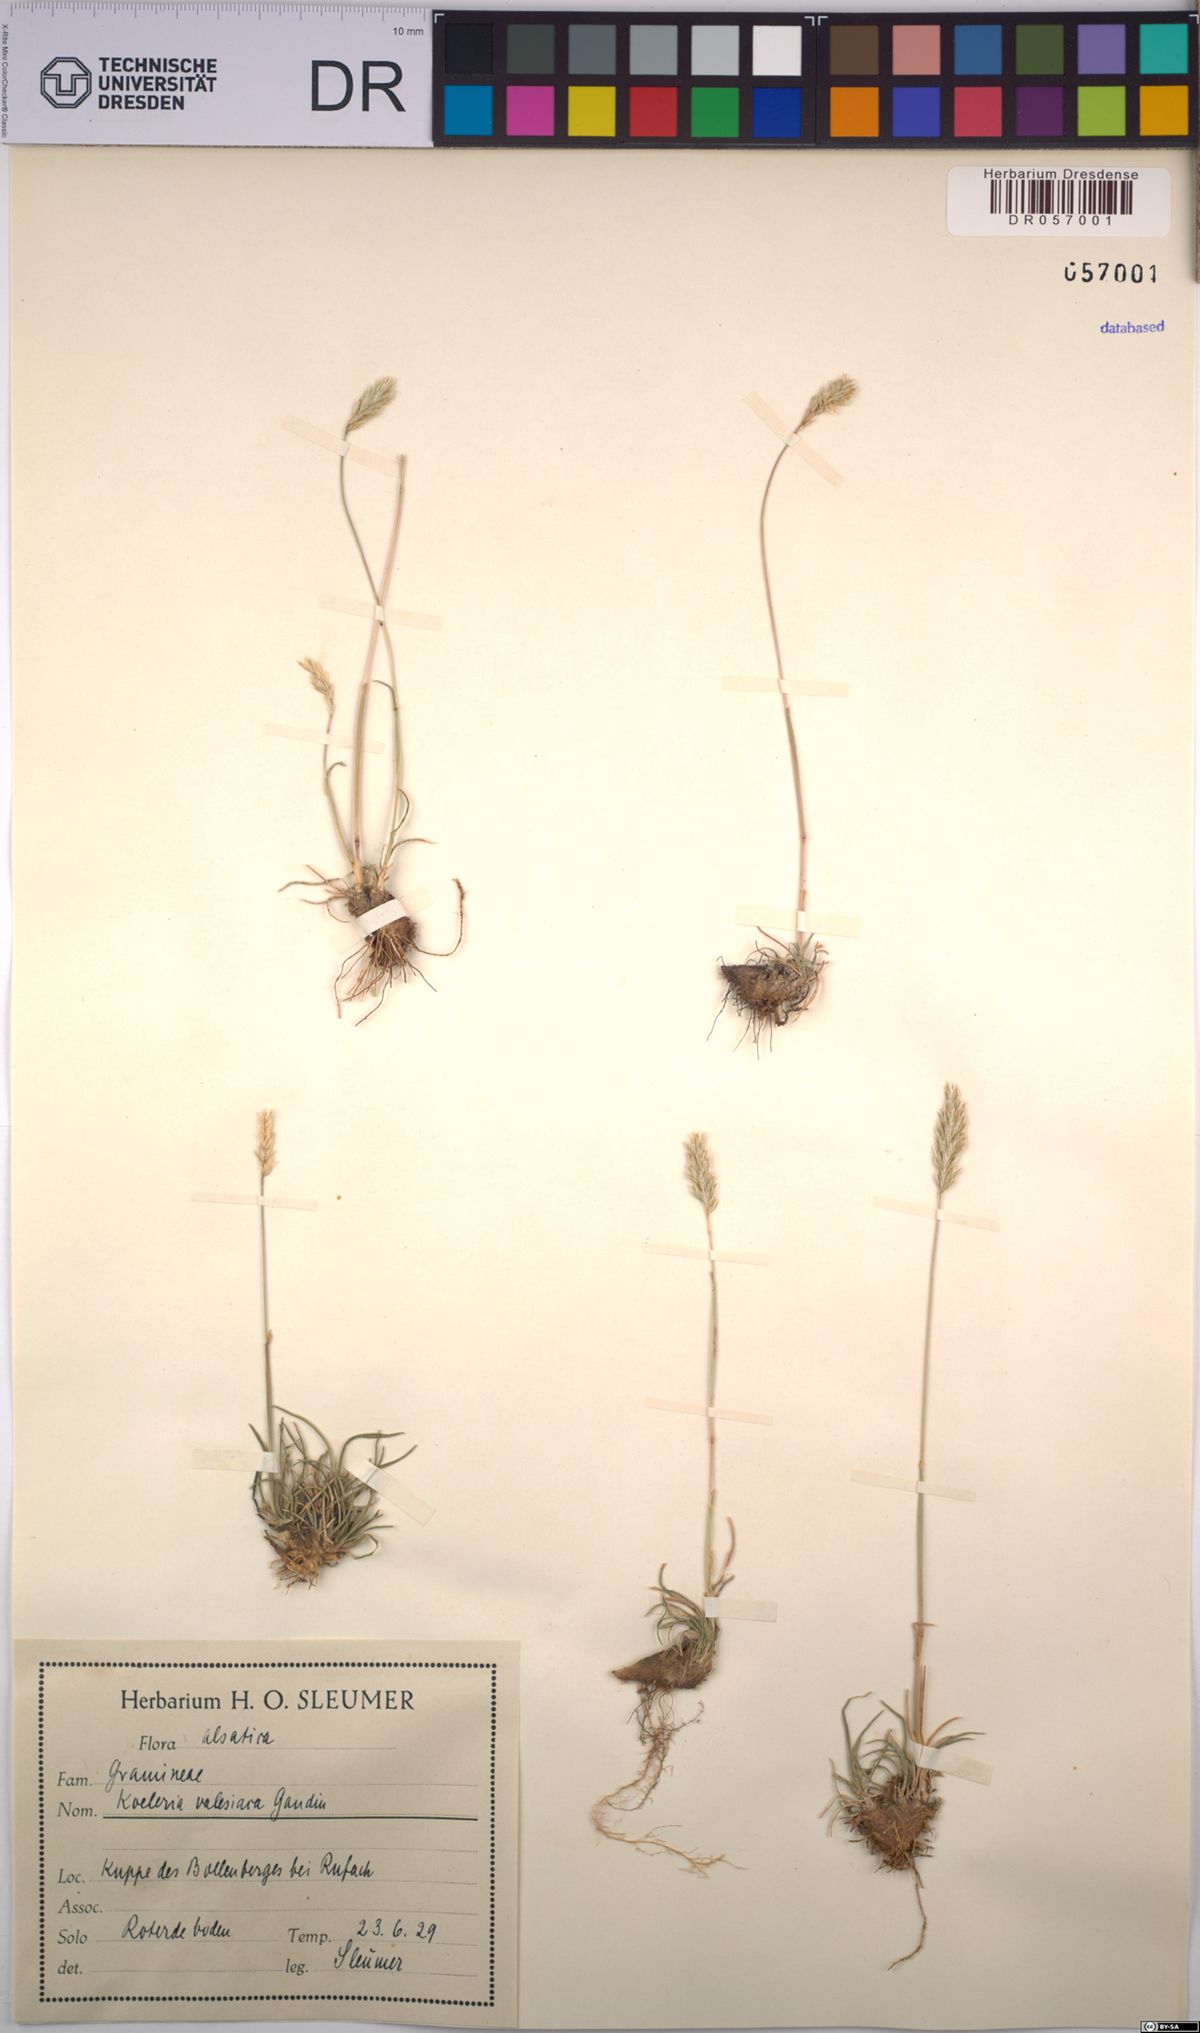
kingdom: Plantae
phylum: Tracheophyta
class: Liliopsida
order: Poales
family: Poaceae
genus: Koeleria
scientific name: Koeleria vallesiana
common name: Somerset hair-grass
